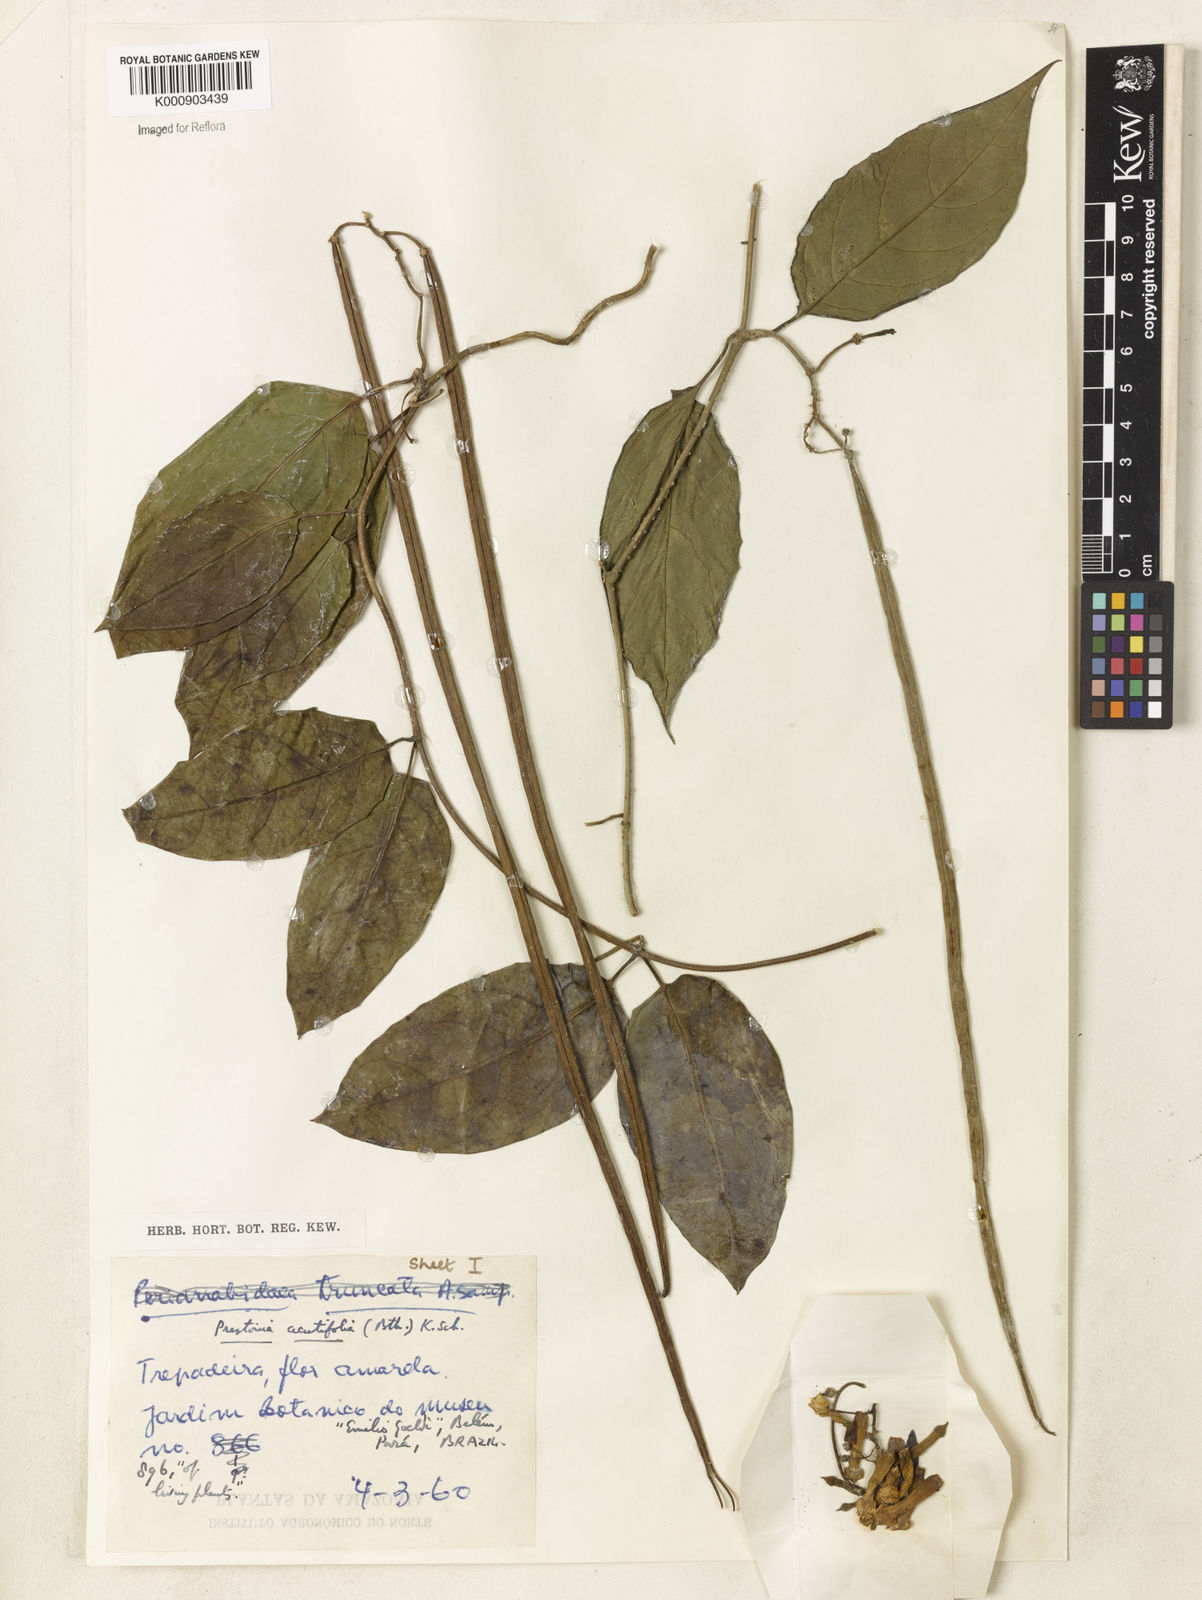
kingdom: Plantae
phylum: Tracheophyta
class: Magnoliopsida
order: Gentianales
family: Apocynaceae
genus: Prestonia
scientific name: Prestonia quinquangularis
